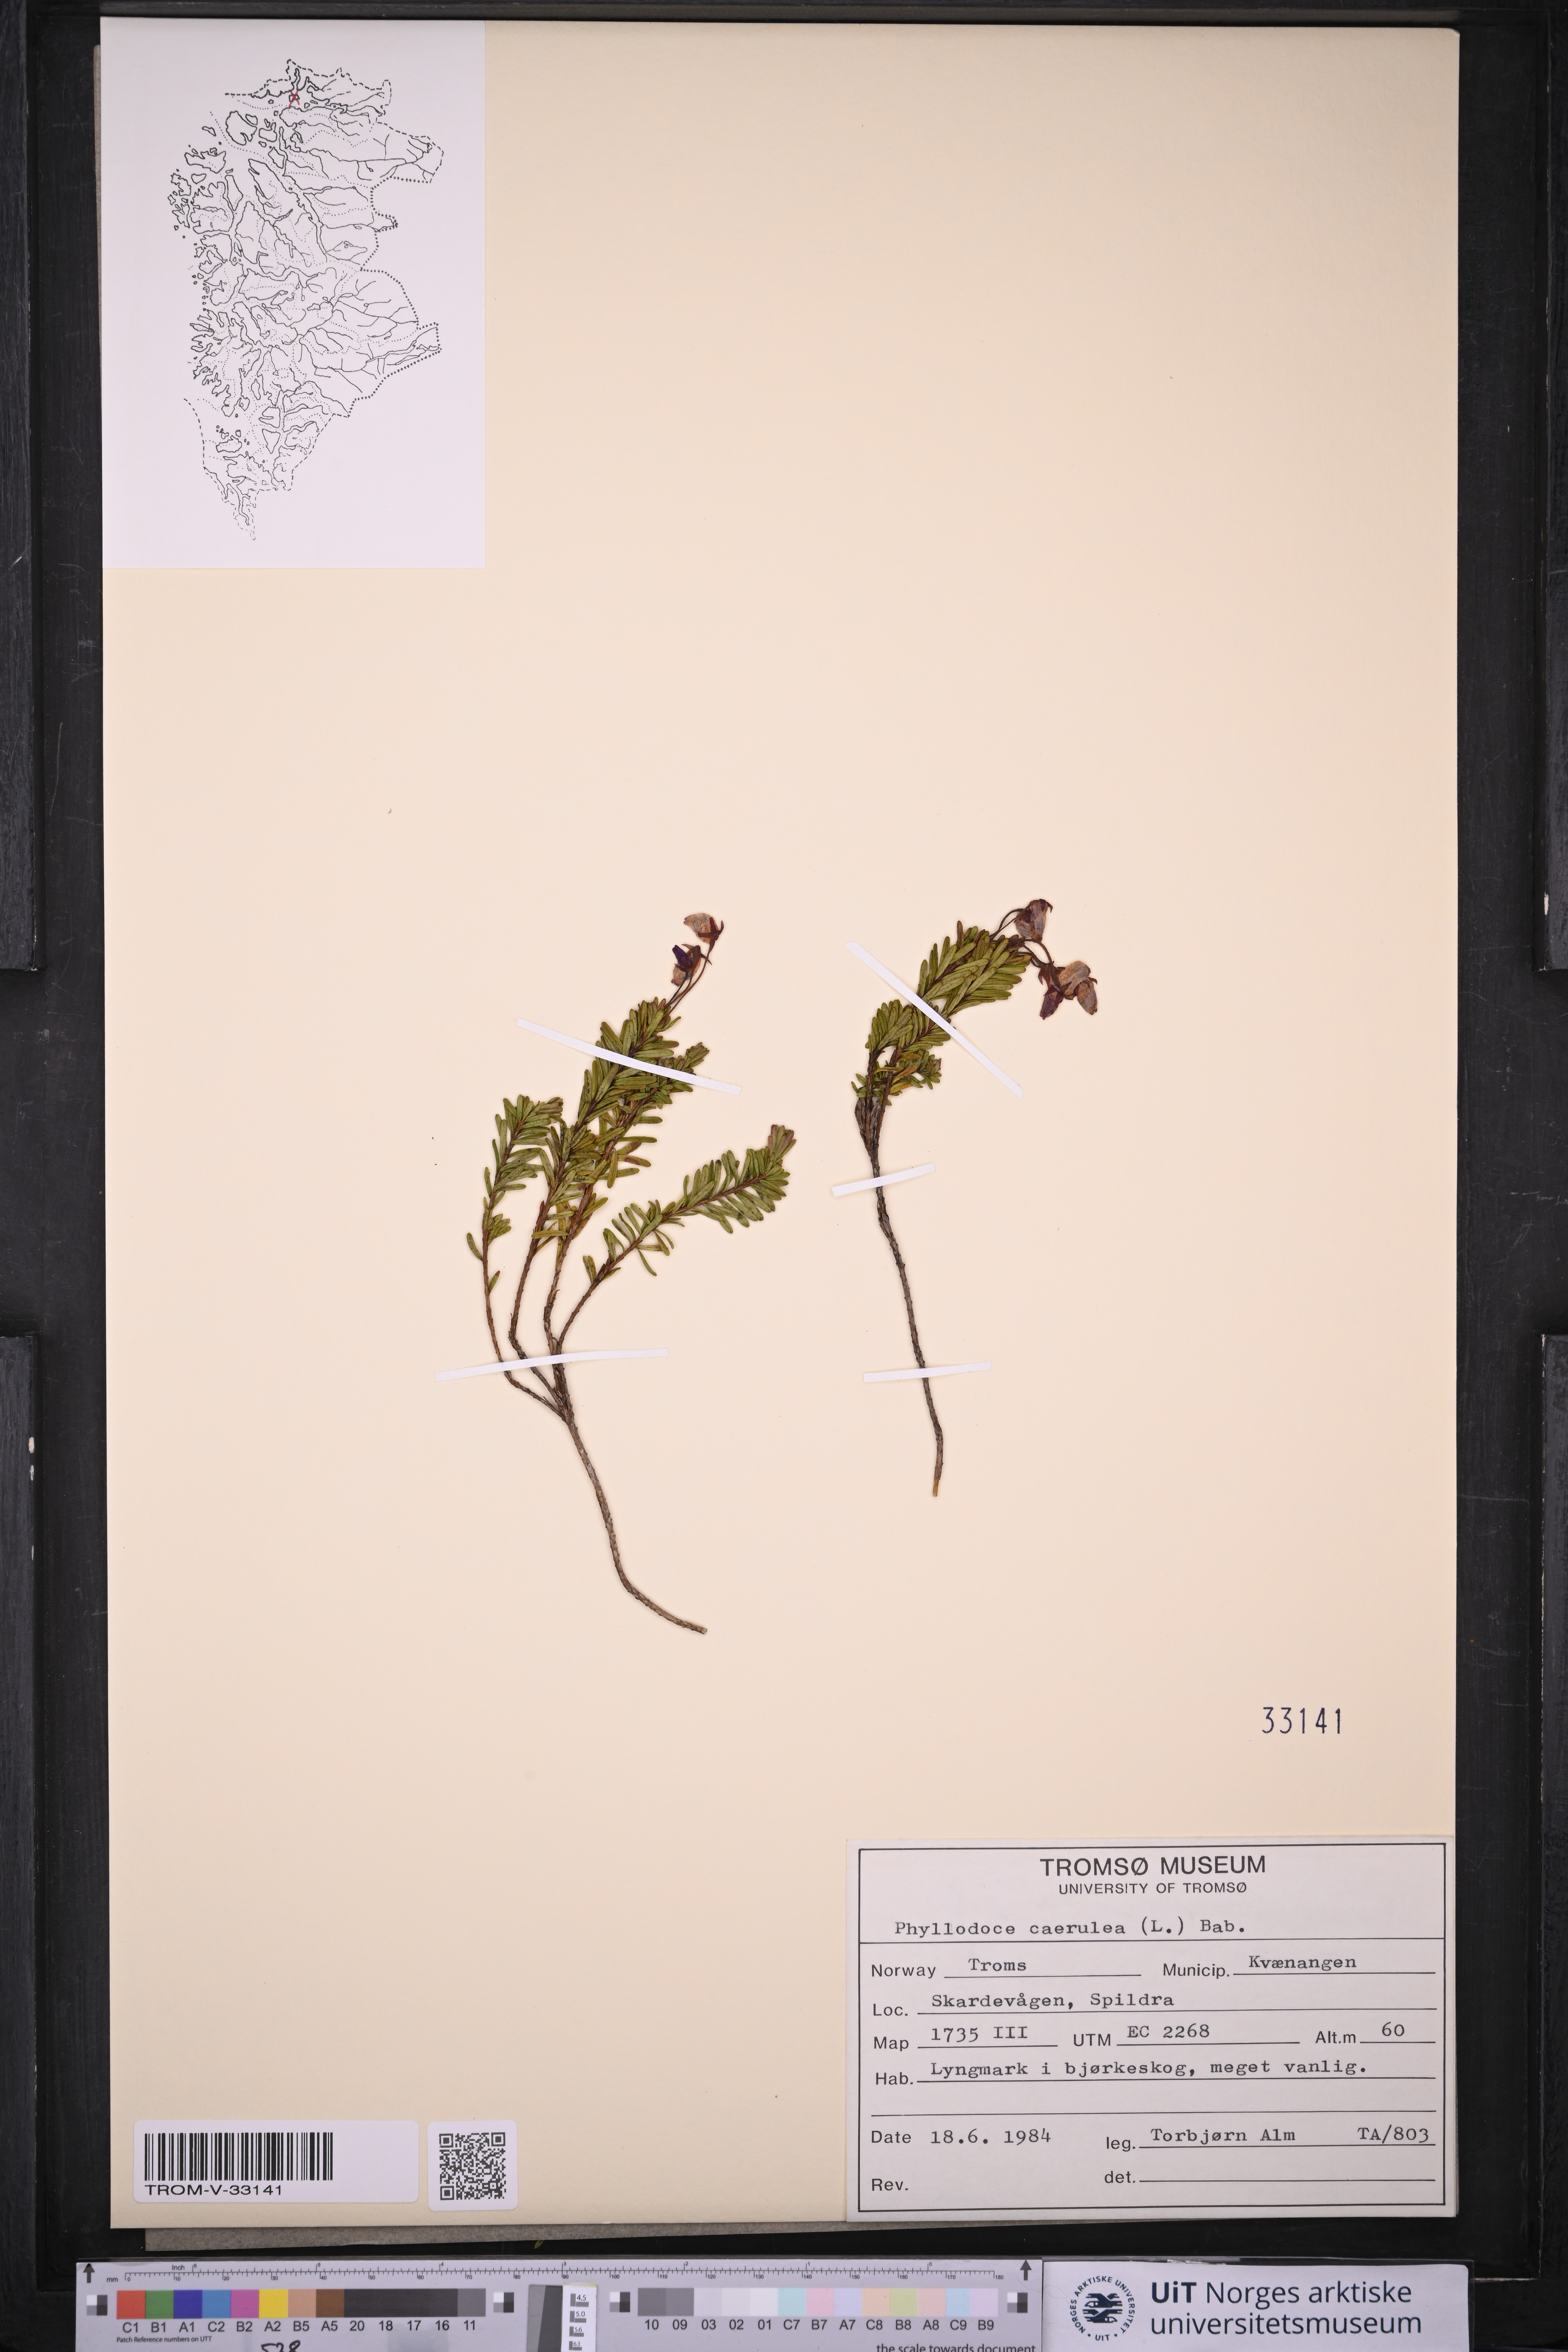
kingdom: Plantae
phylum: Tracheophyta
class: Magnoliopsida
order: Ericales
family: Ericaceae
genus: Phyllodoce
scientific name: Phyllodoce caerulea
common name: Blue heath
